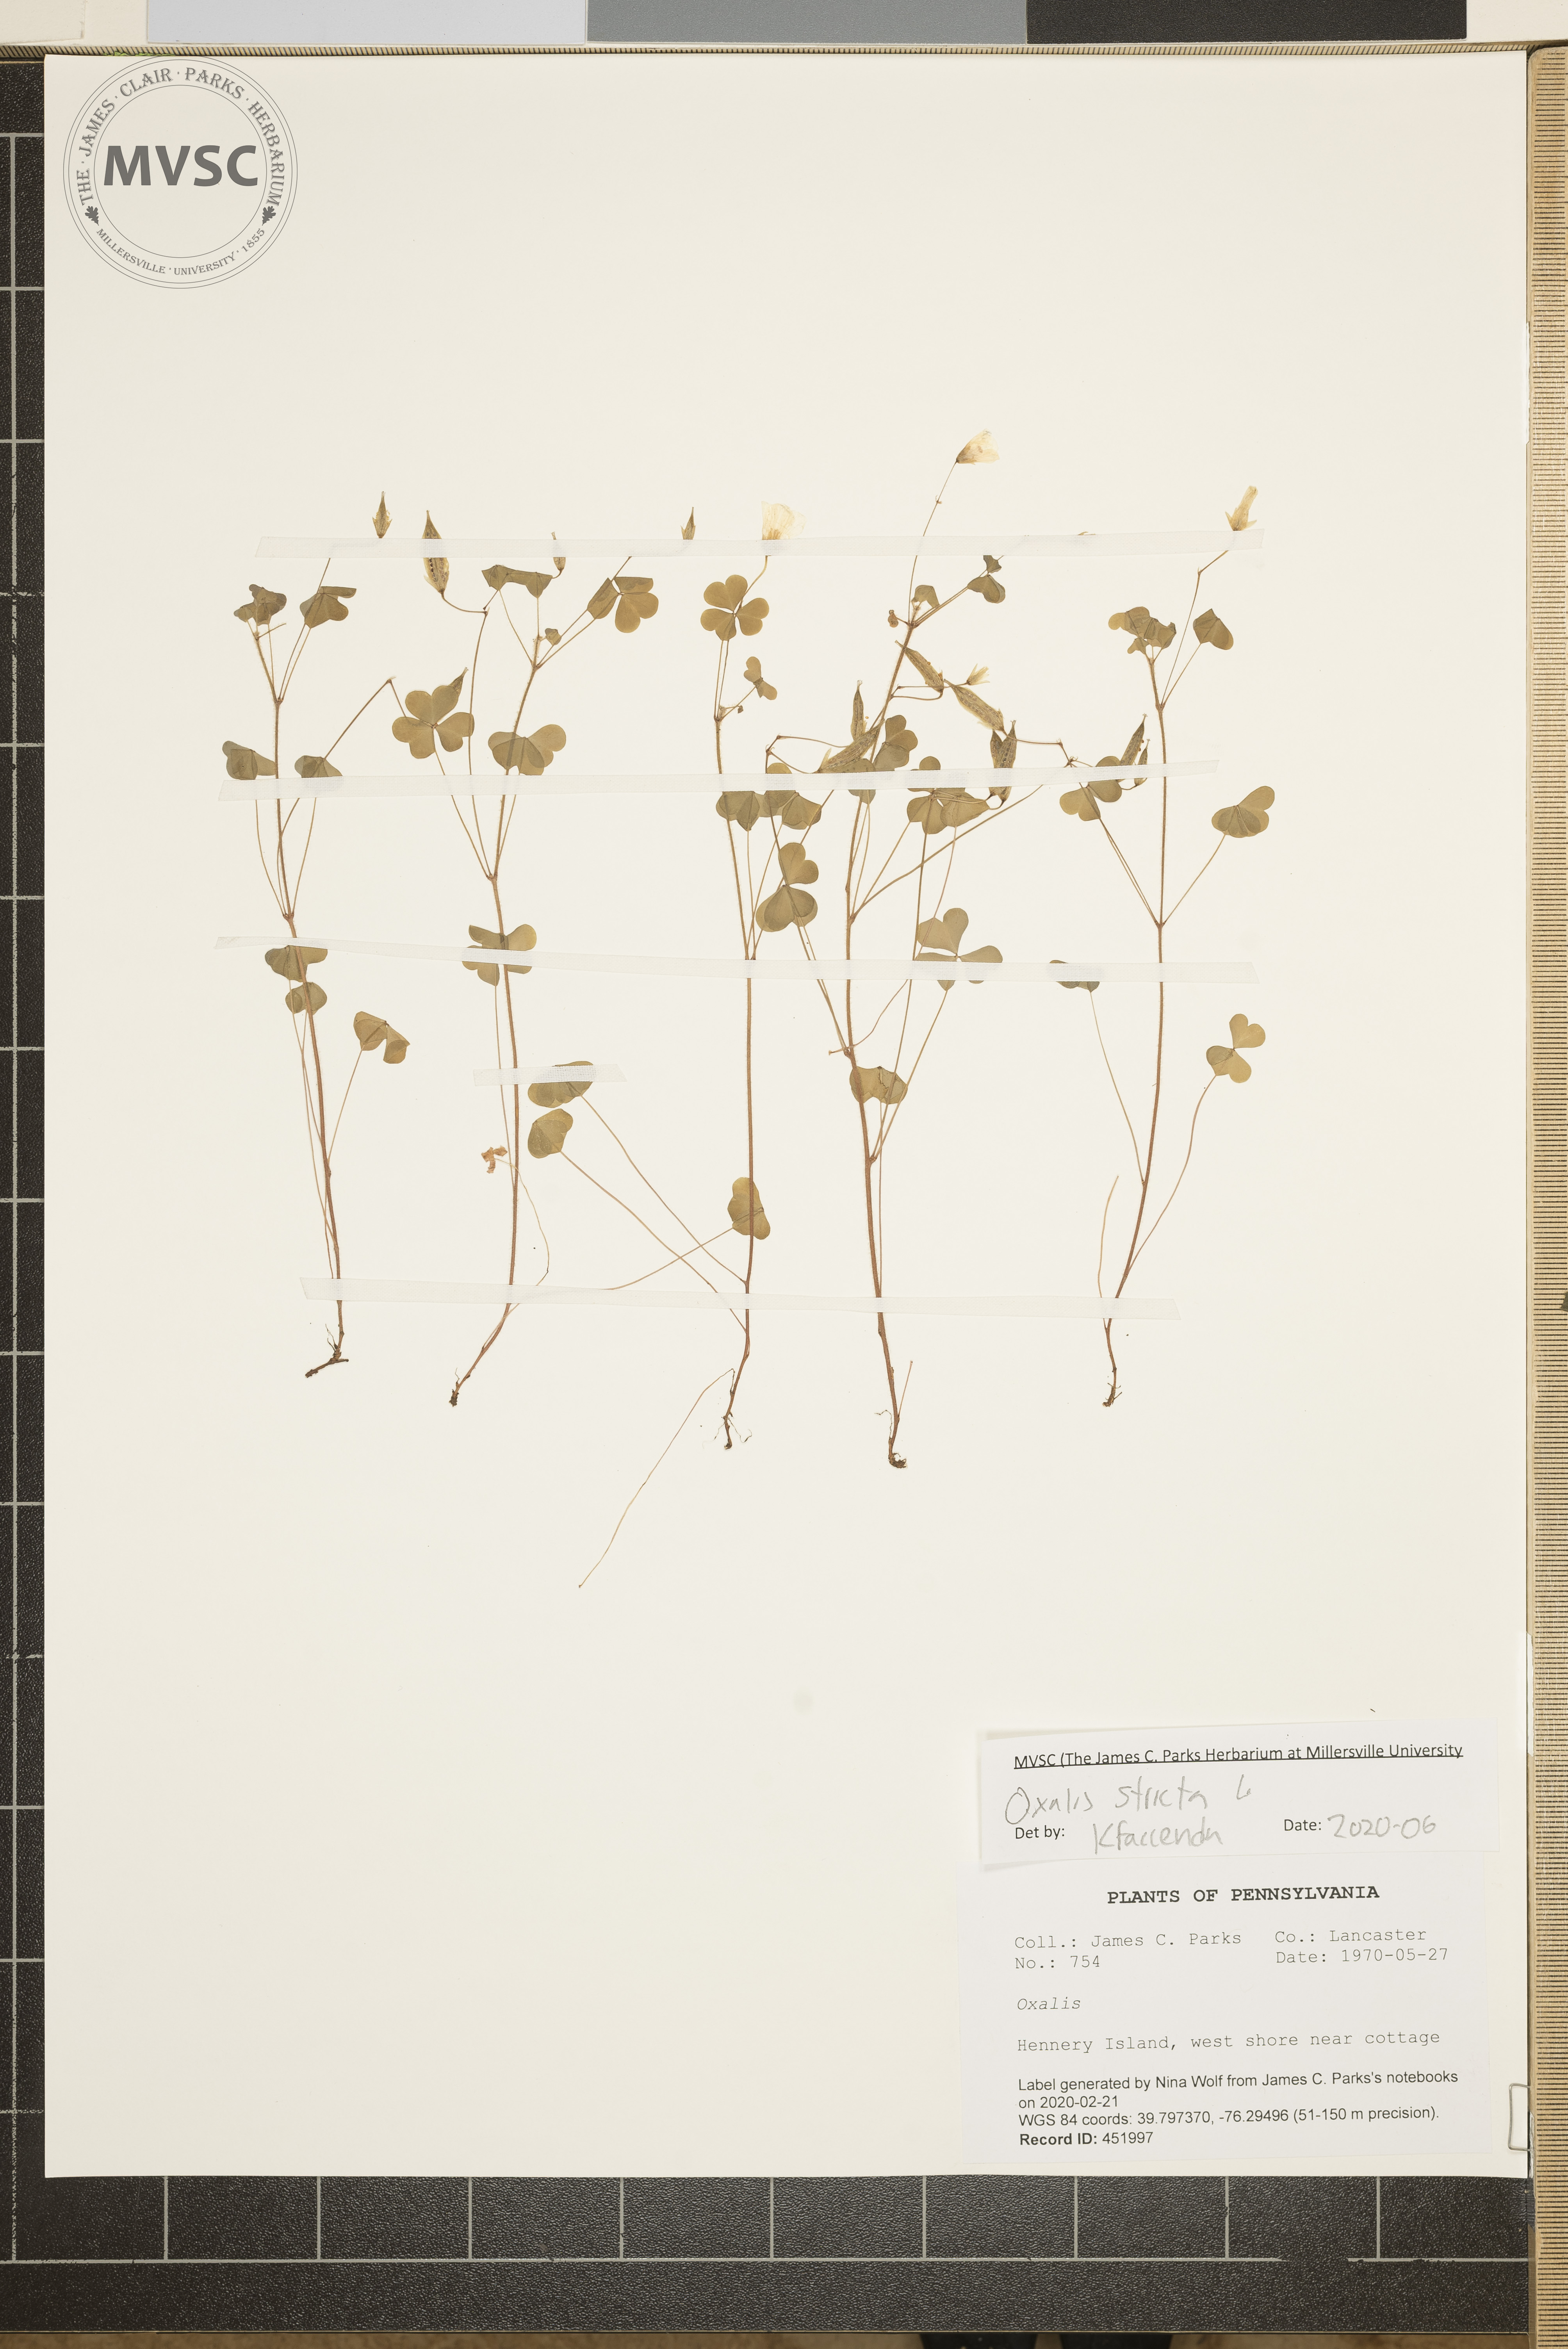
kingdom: Plantae
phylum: Tracheophyta
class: Magnoliopsida
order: Oxalidales
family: Oxalidaceae
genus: Oxalis
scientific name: Oxalis stricta
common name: Upright yellow-sorrel
